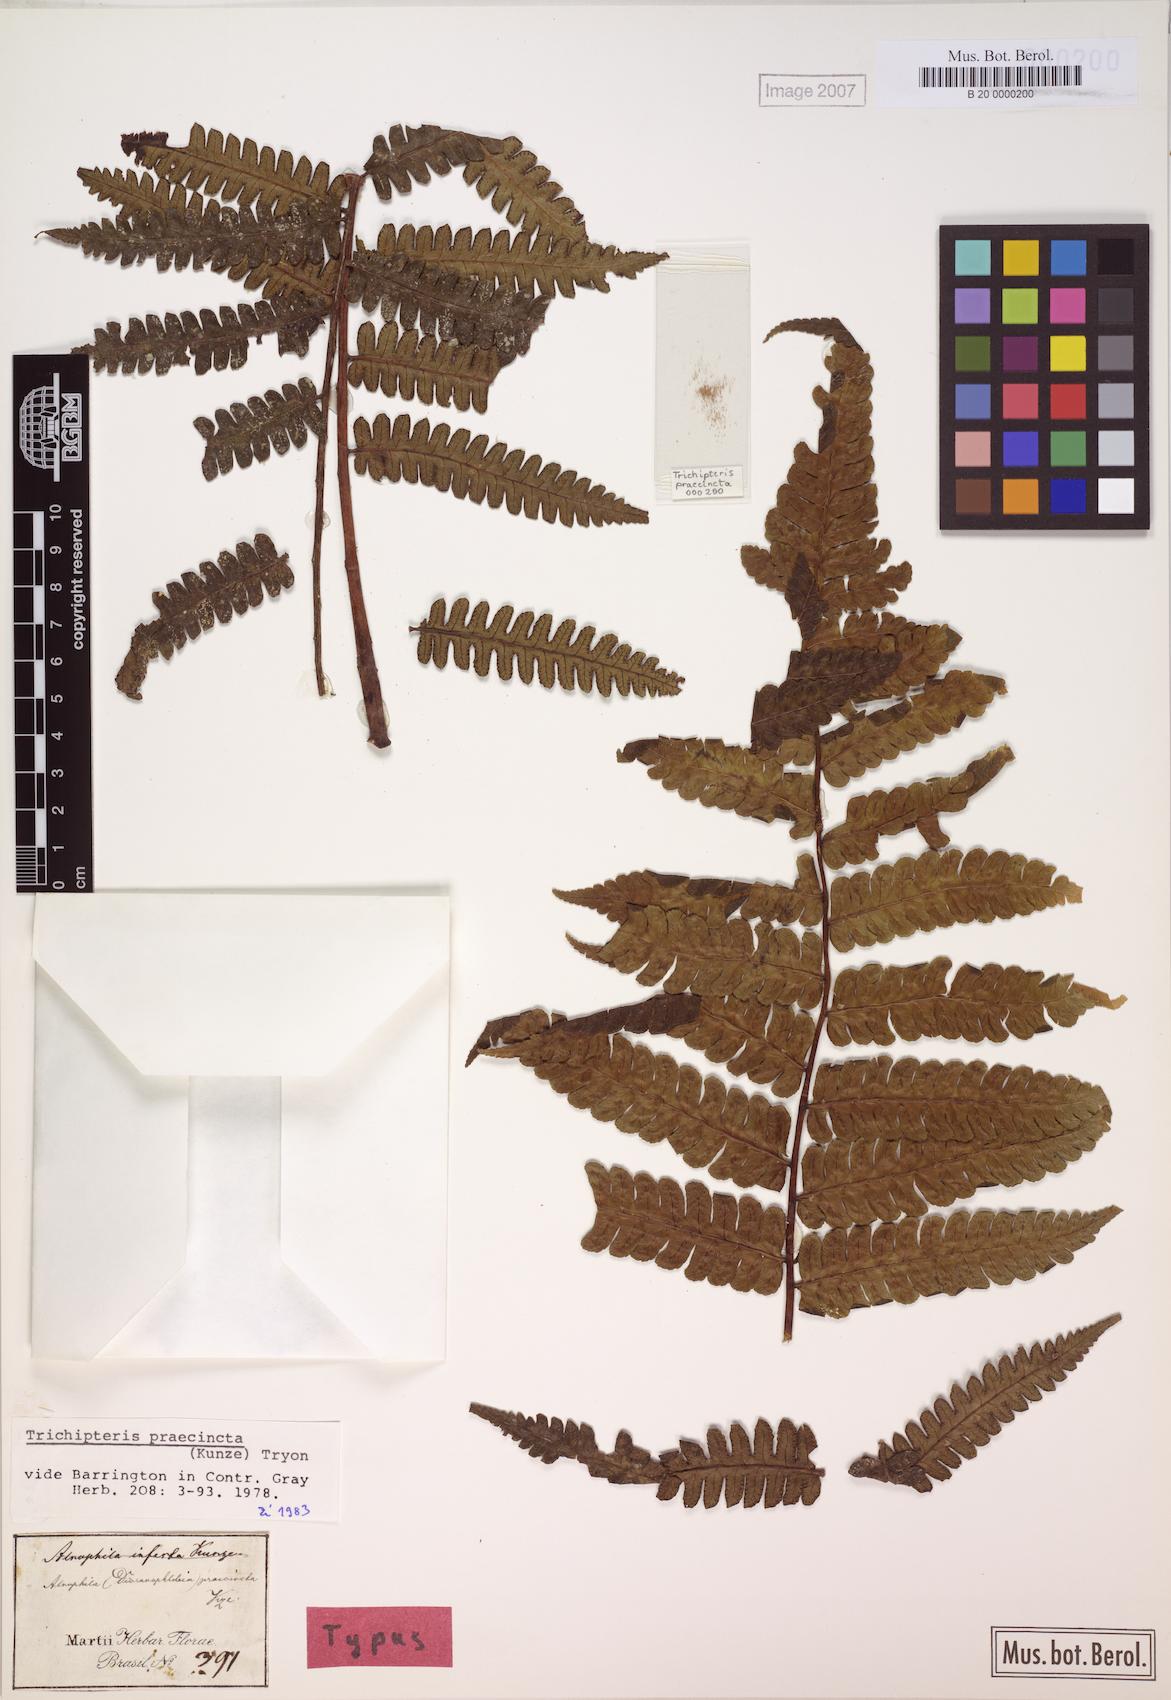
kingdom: Plantae
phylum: Tracheophyta
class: Polypodiopsida
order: Cyatheales
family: Cyatheaceae
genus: Cyathea
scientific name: Cyathea praecincta
